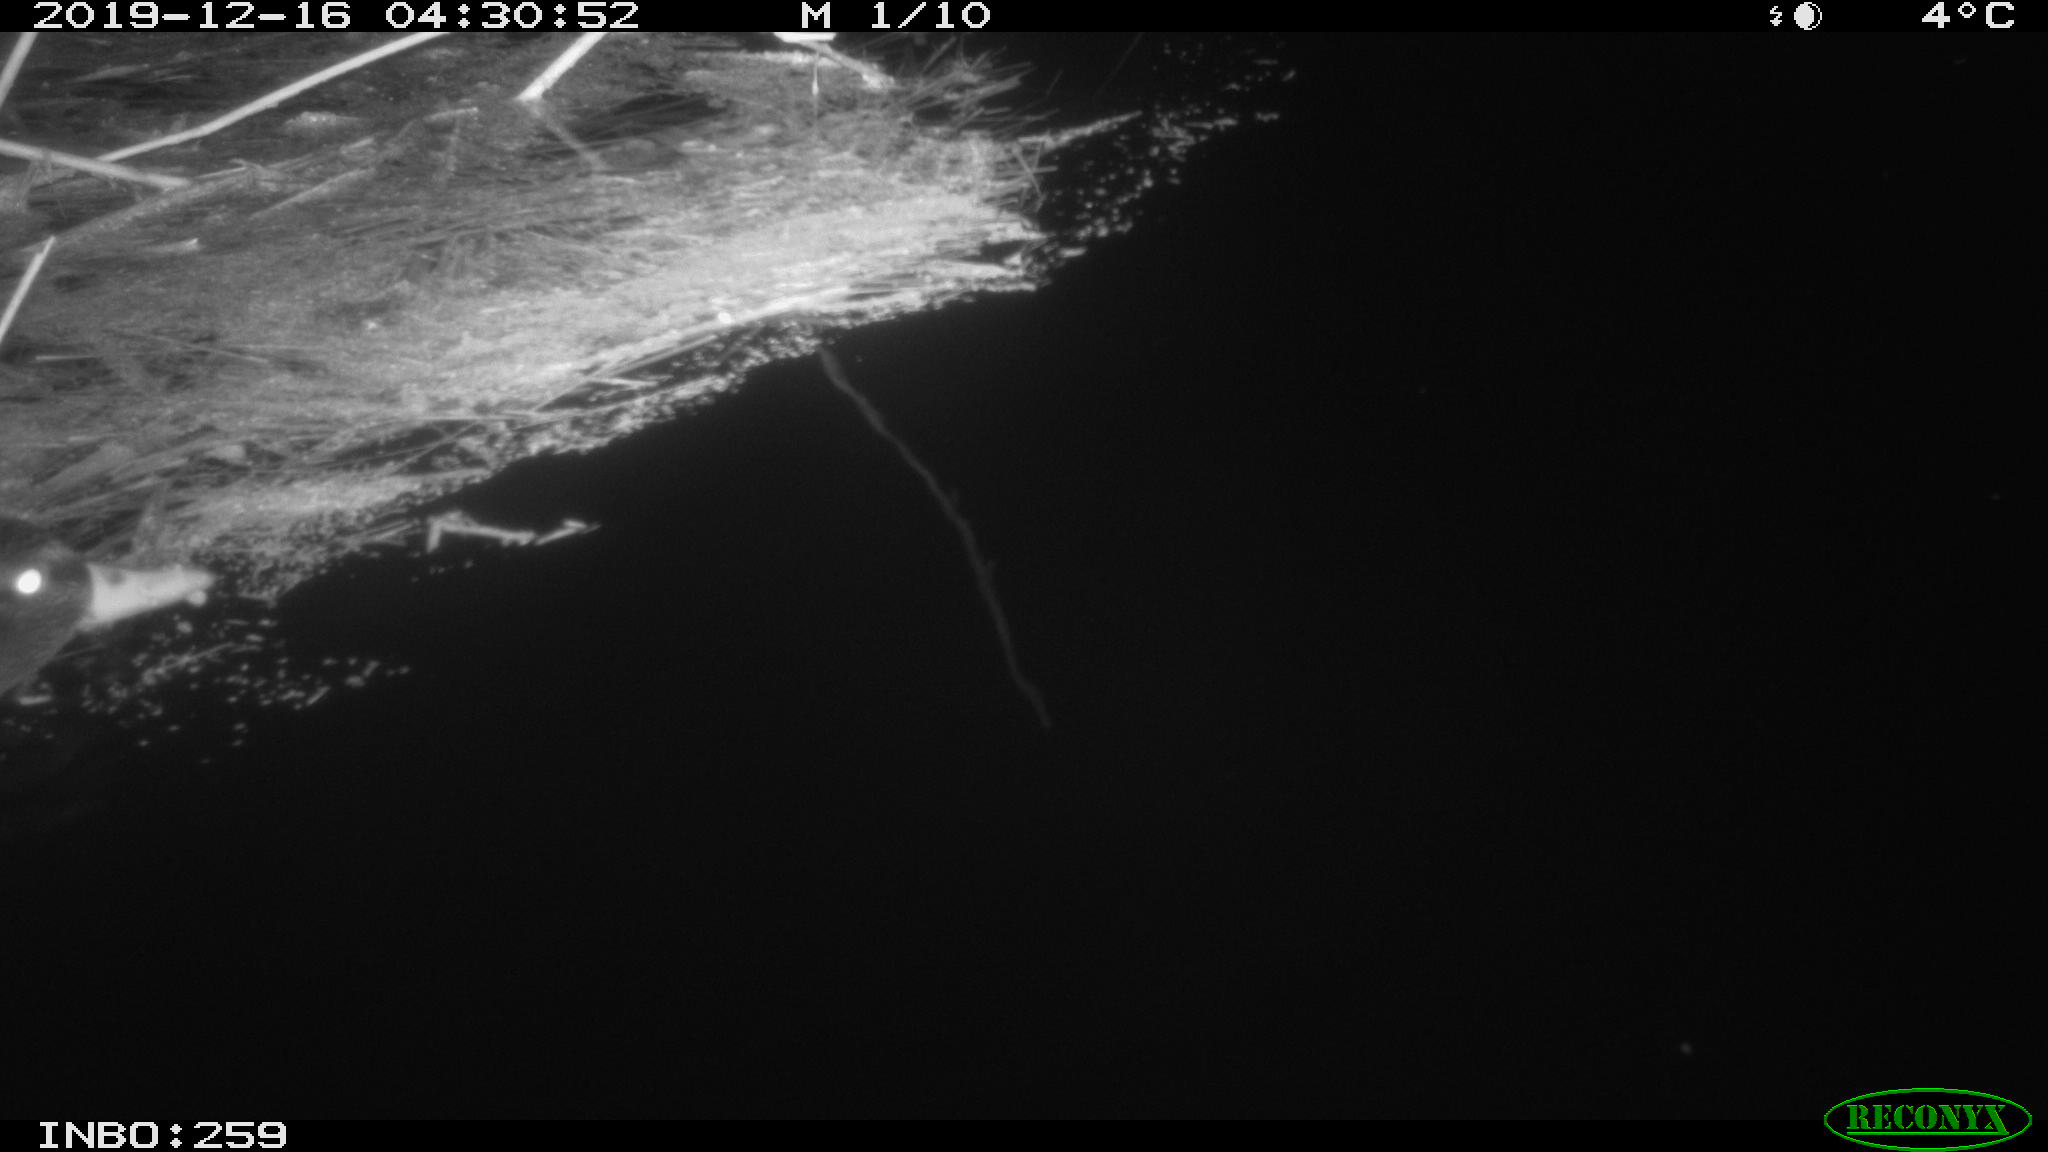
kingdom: Animalia
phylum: Chordata
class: Aves
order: Gruiformes
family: Rallidae
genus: Gallinula
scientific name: Gallinula chloropus
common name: Common moorhen
